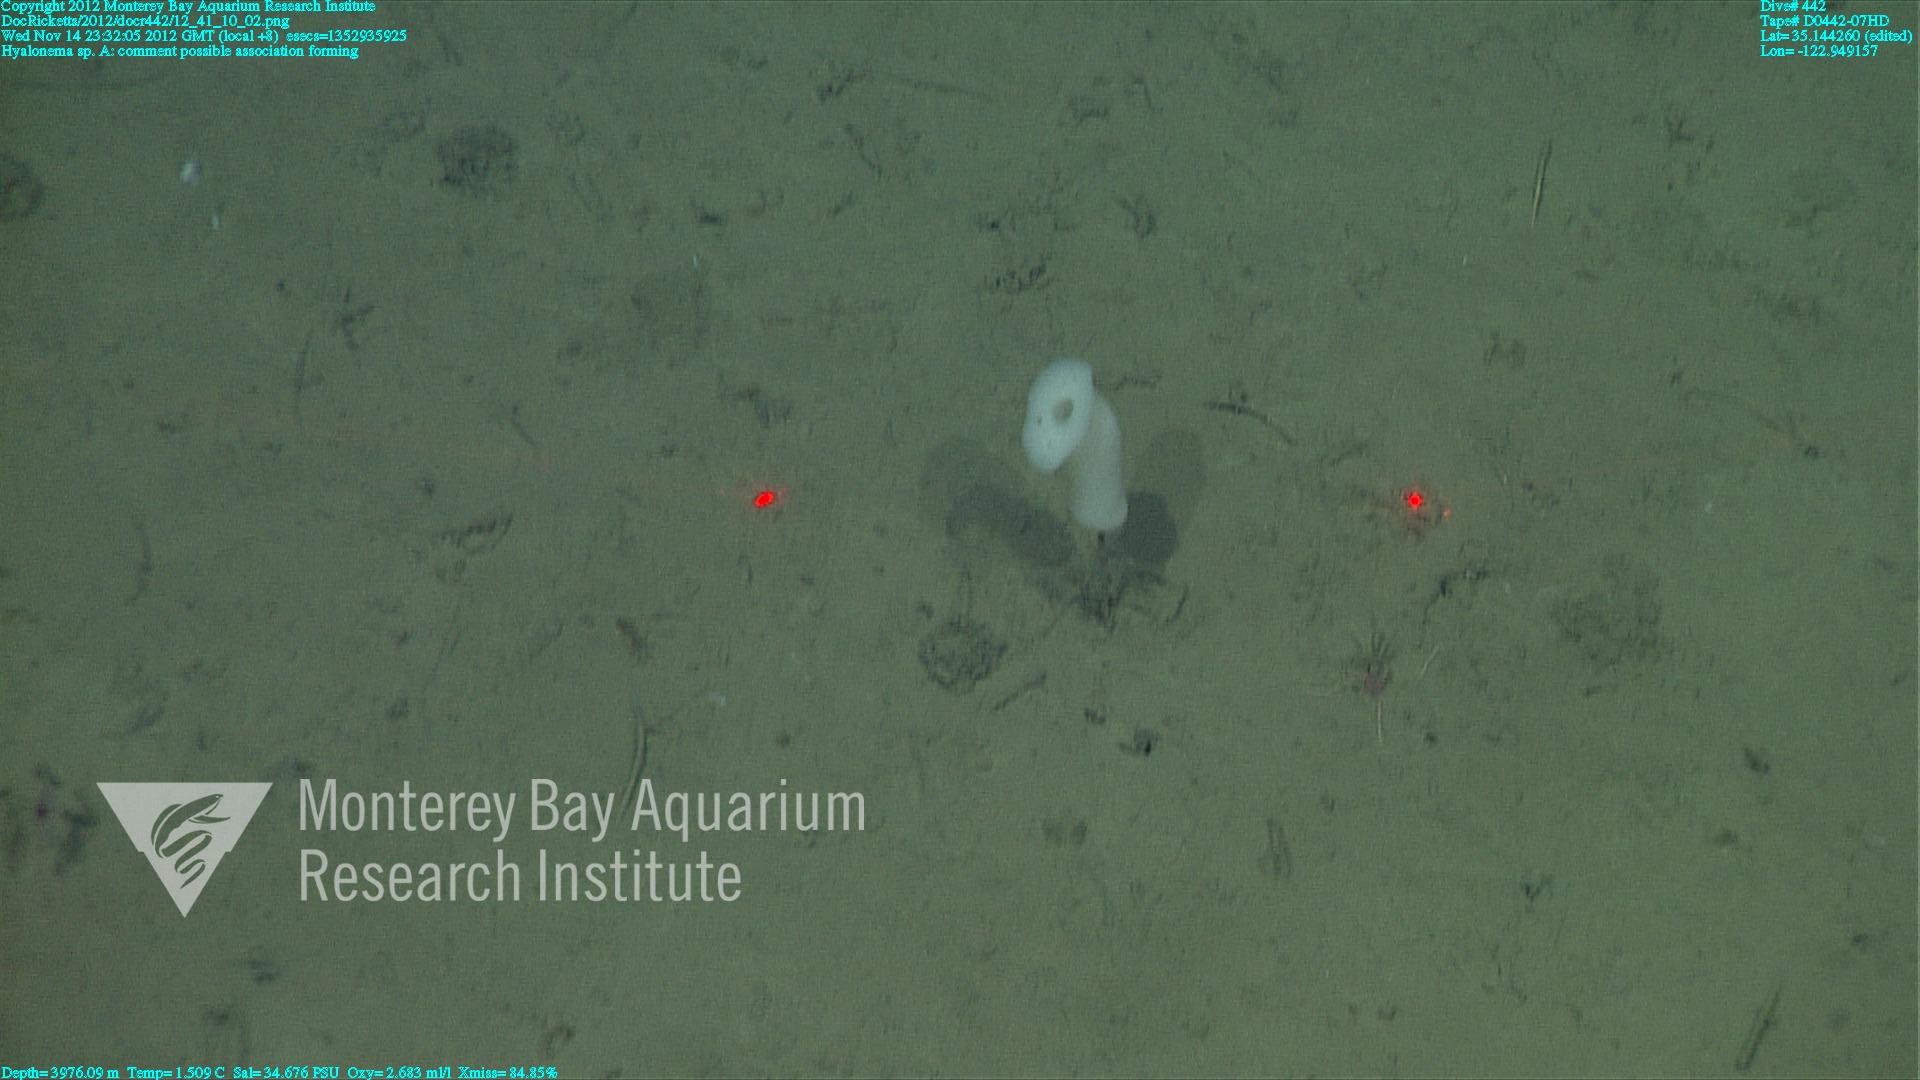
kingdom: Animalia
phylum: Porifera
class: Hexactinellida
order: Amphidiscosida
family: Hyalonematidae
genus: Hyalonema
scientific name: Hyalonema
